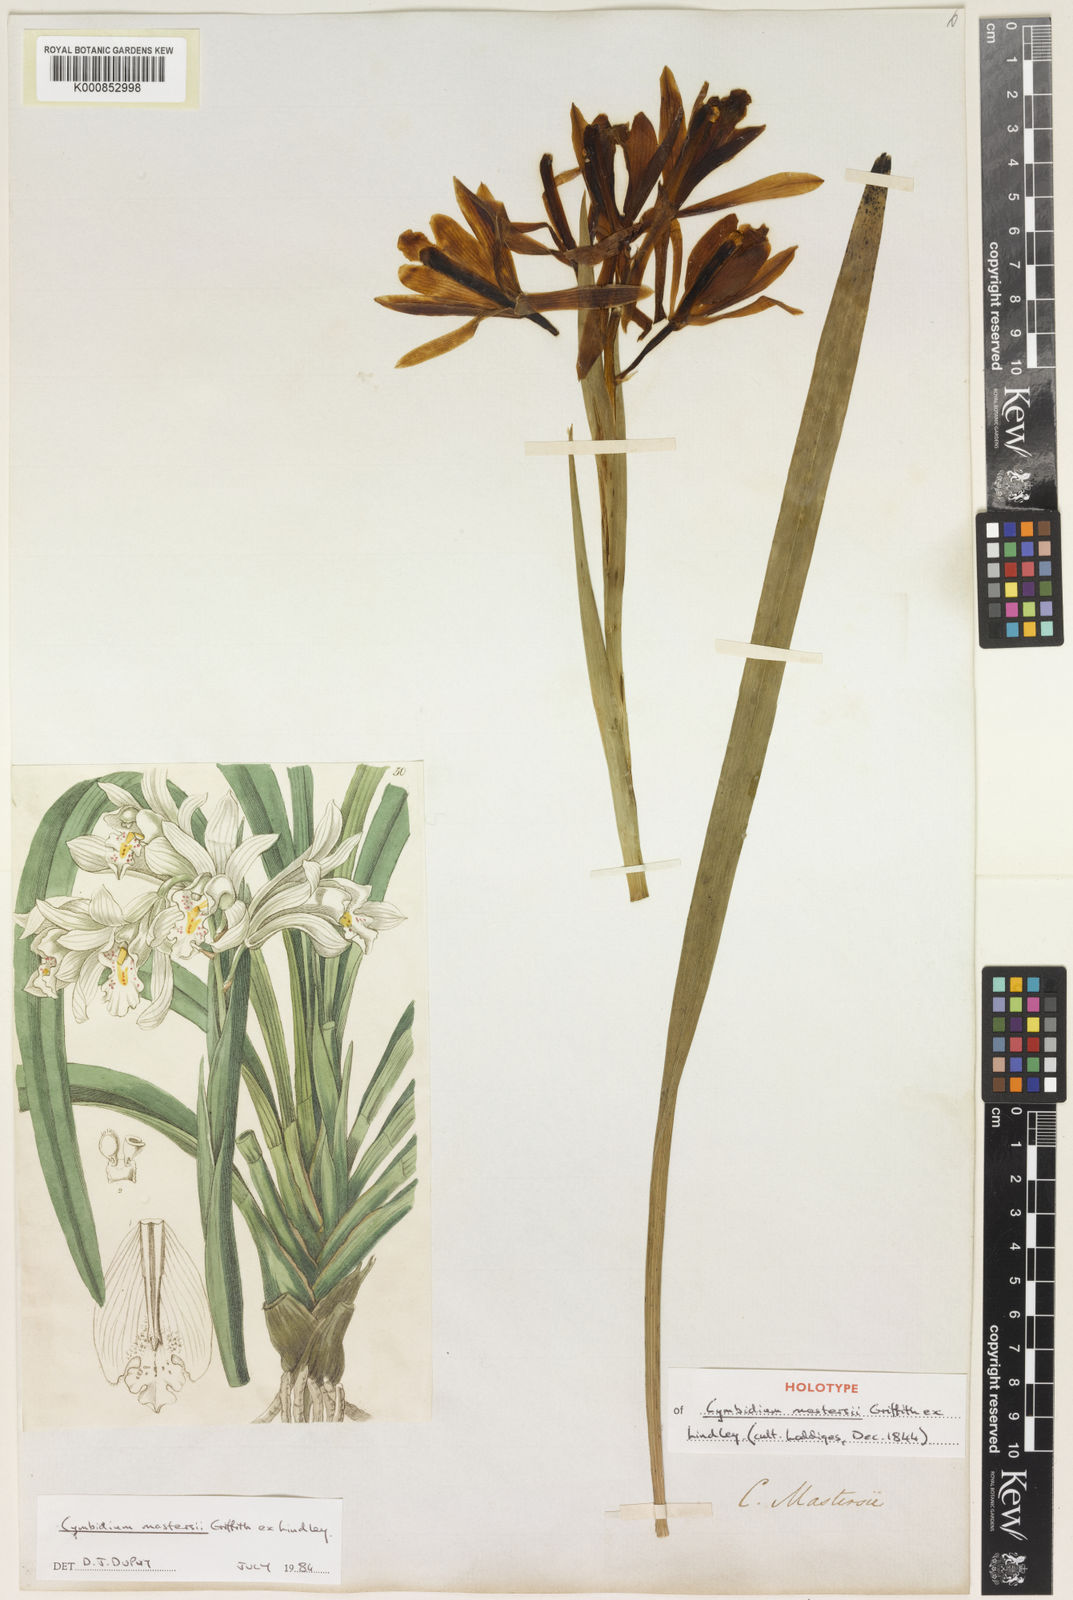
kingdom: Plantae
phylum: Tracheophyta
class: Liliopsida
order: Asparagales
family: Orchidaceae
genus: Cymbidium
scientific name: Cymbidium mastersii
